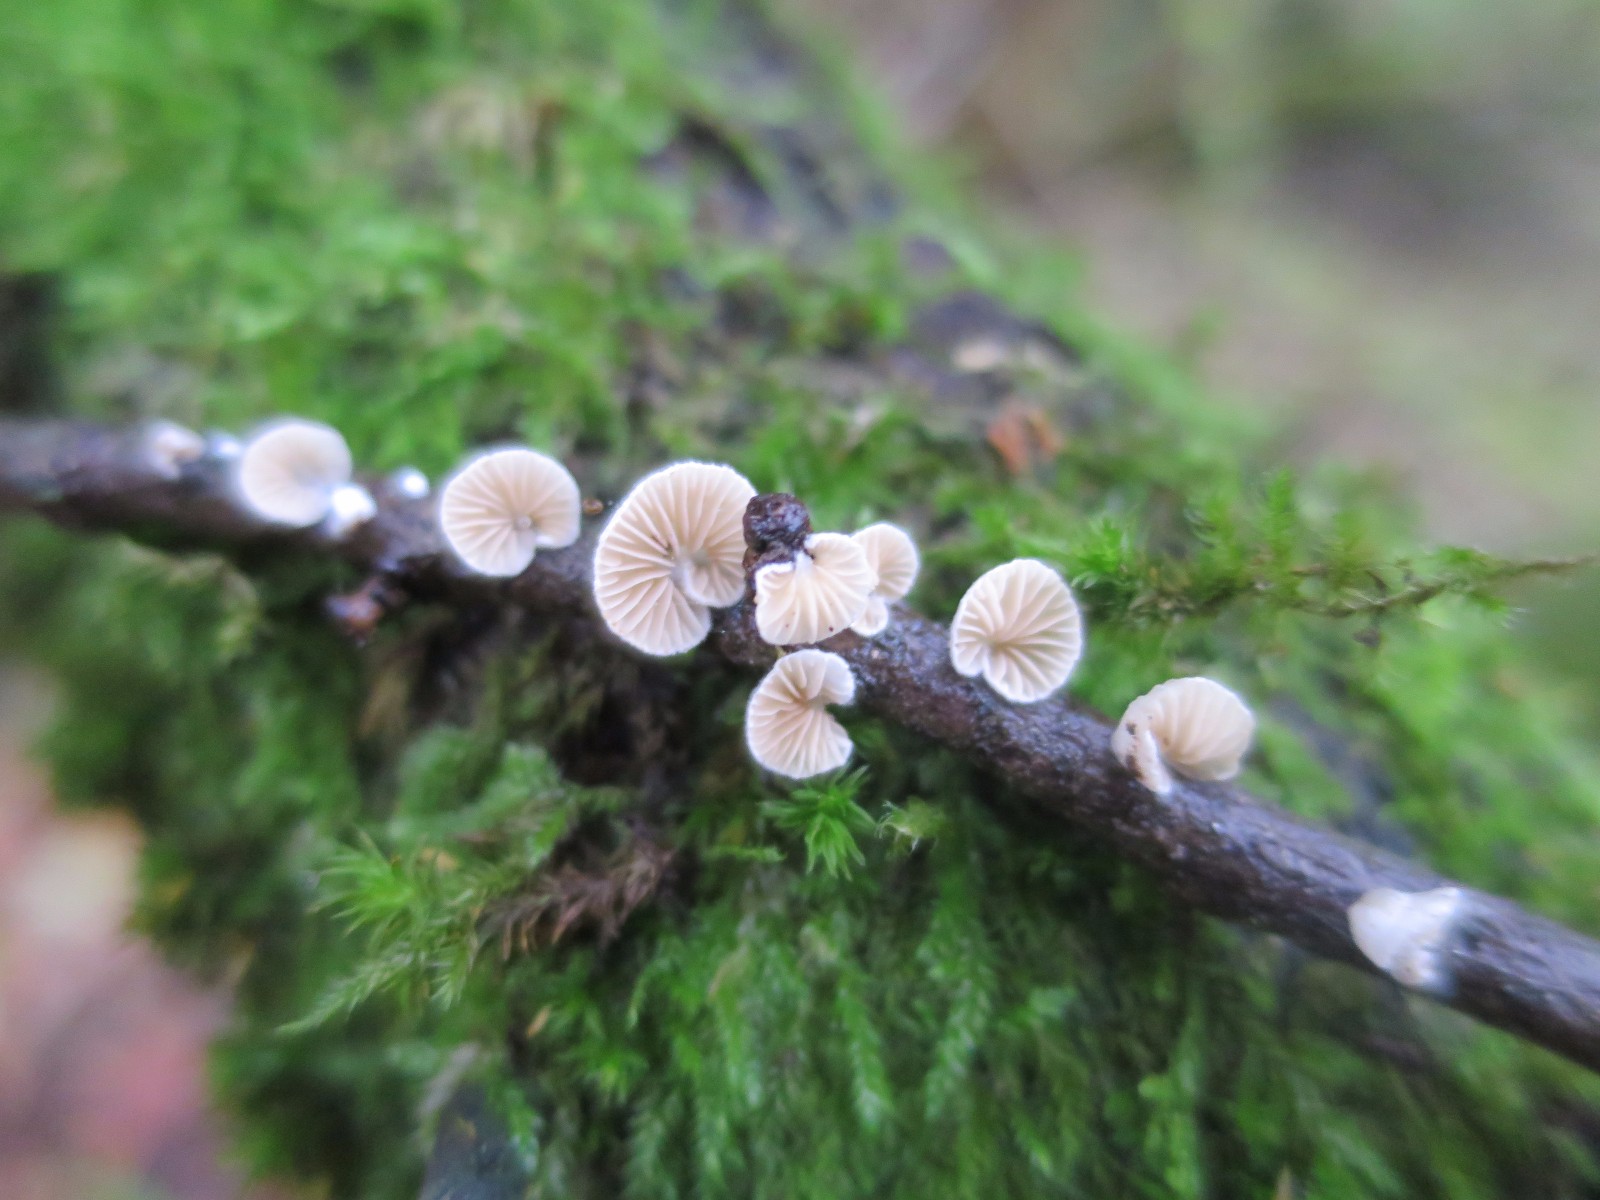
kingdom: Fungi
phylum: Basidiomycota
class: Agaricomycetes
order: Agaricales
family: Crepidotaceae
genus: Crepidotus
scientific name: Crepidotus
